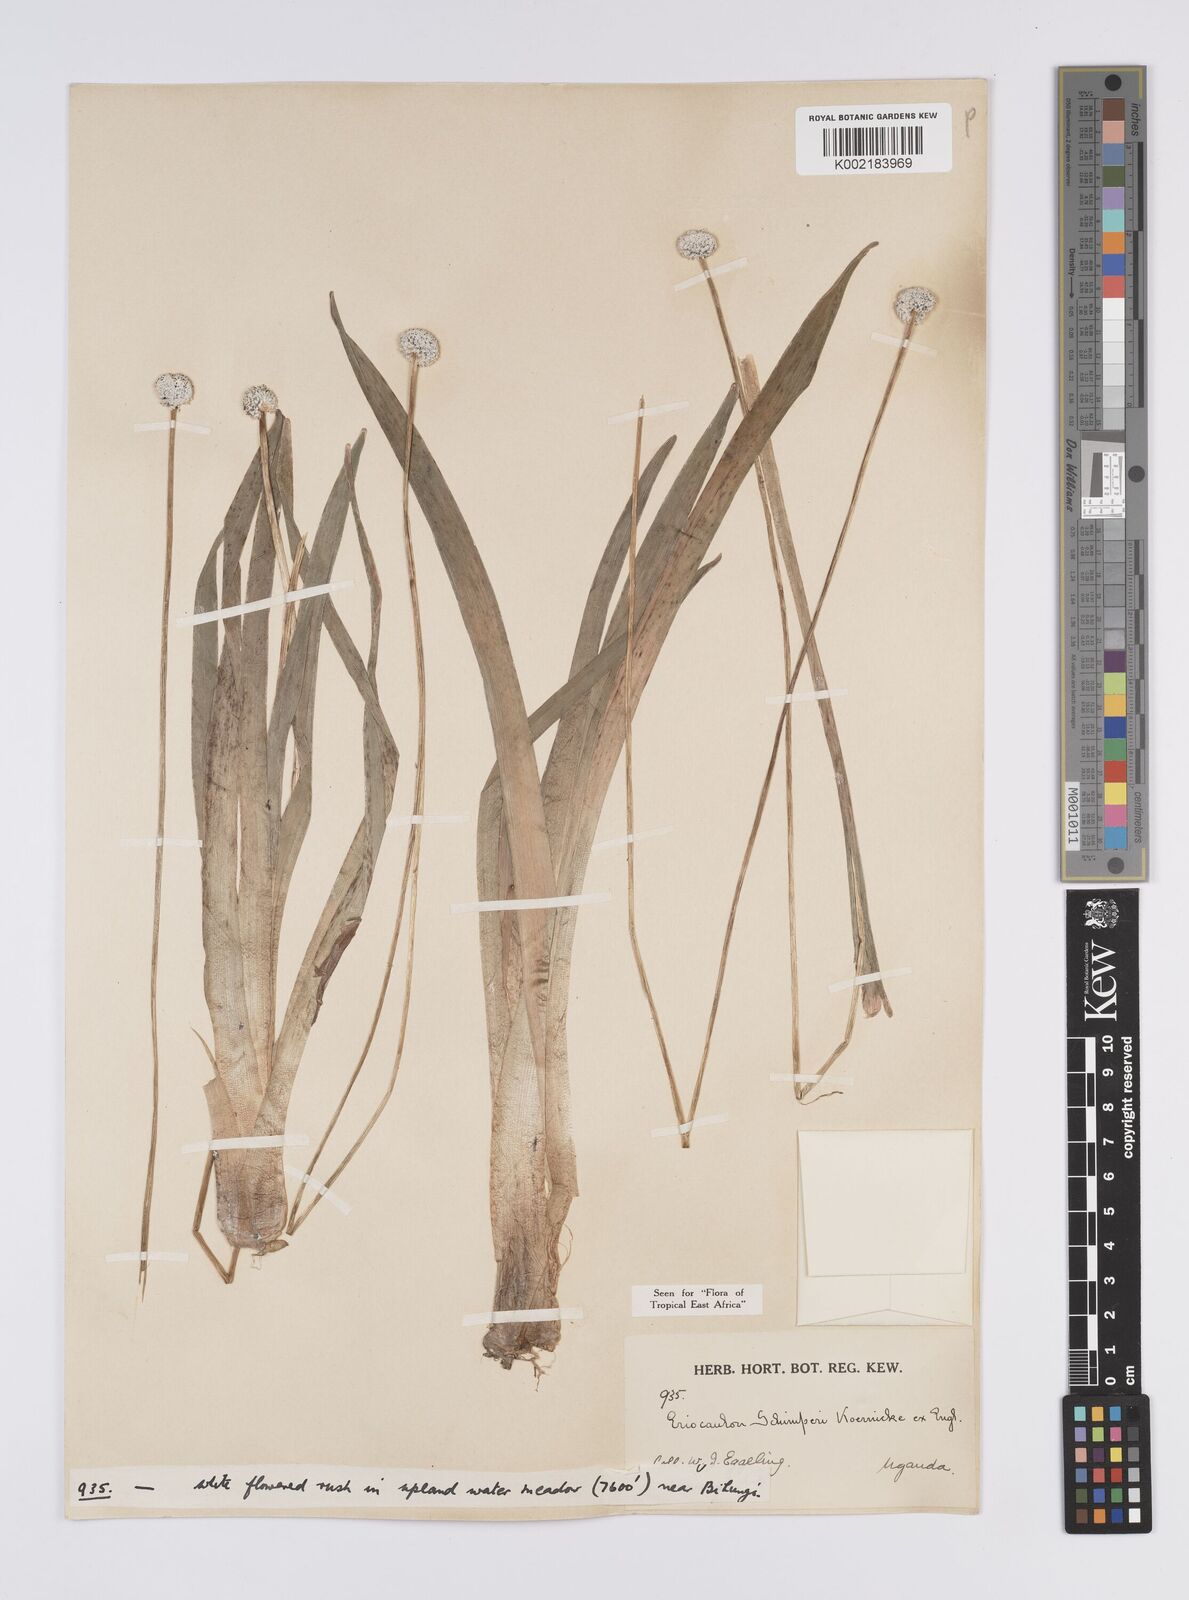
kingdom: Plantae
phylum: Tracheophyta
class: Liliopsida
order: Poales
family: Eriocaulaceae
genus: Eriocaulon
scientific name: Eriocaulon schimperi
